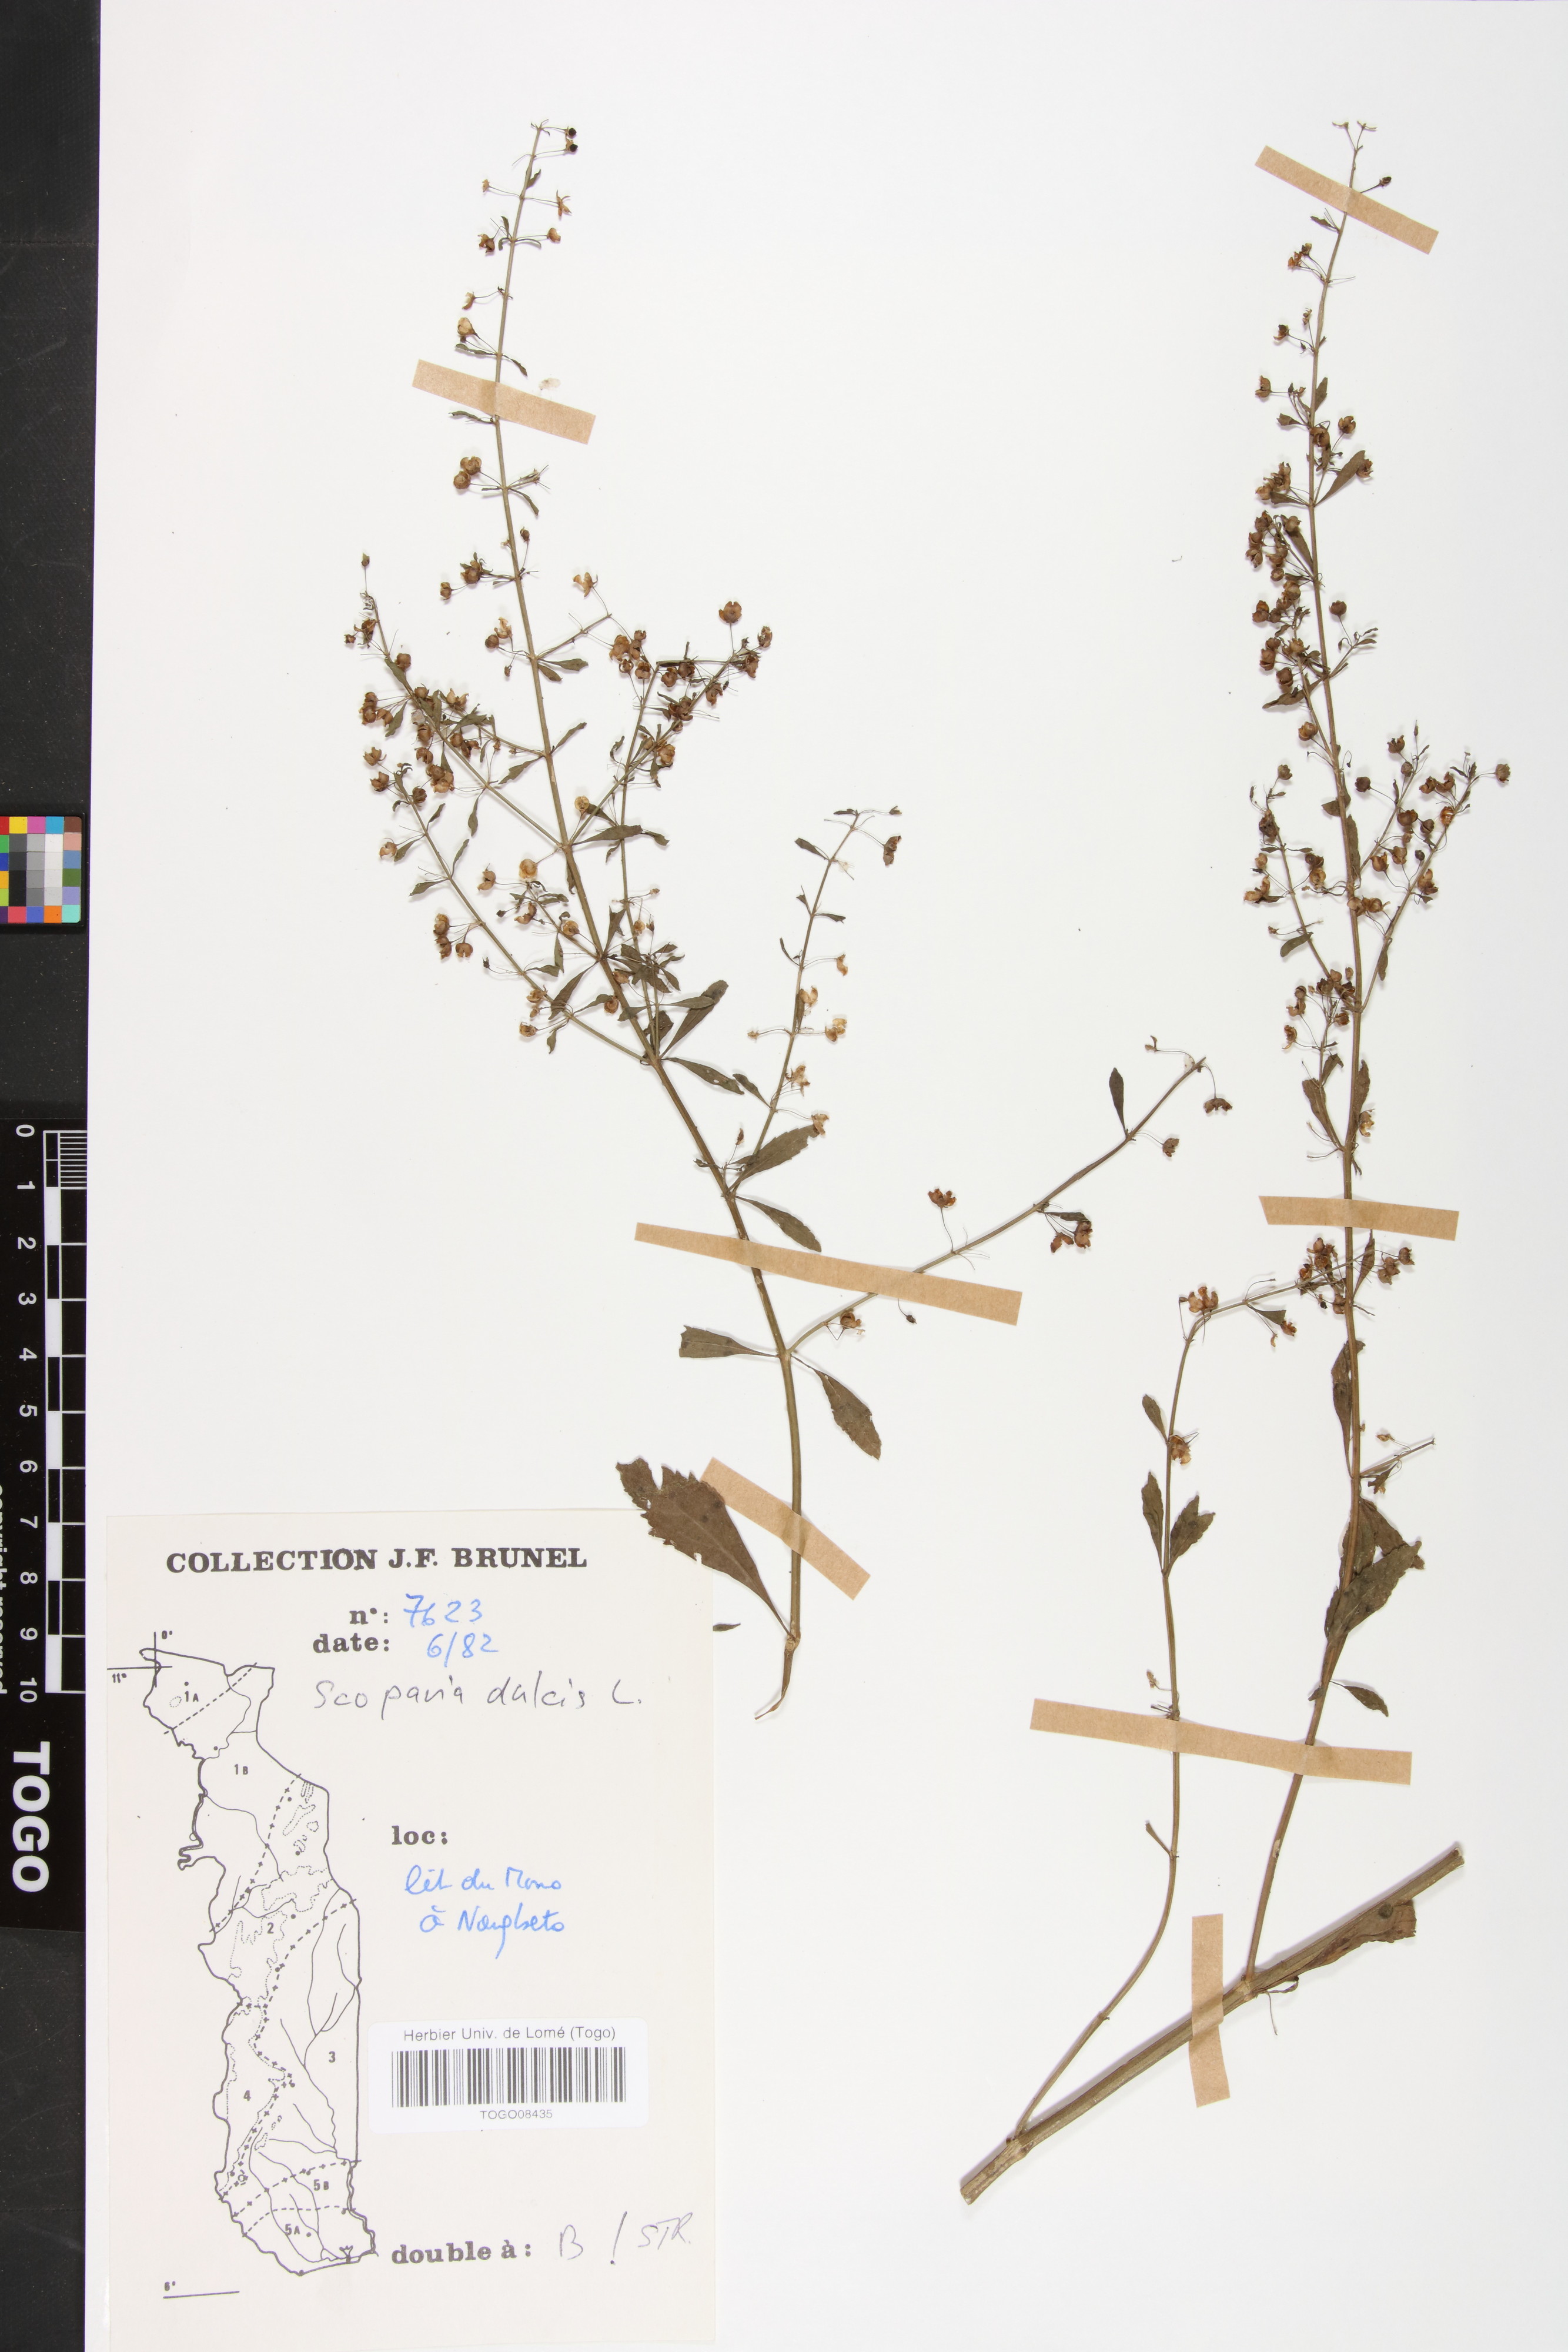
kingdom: Plantae
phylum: Tracheophyta
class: Magnoliopsida
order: Lamiales
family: Plantaginaceae
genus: Scoparia
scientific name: Scoparia dulcis
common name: Scoparia-weed
